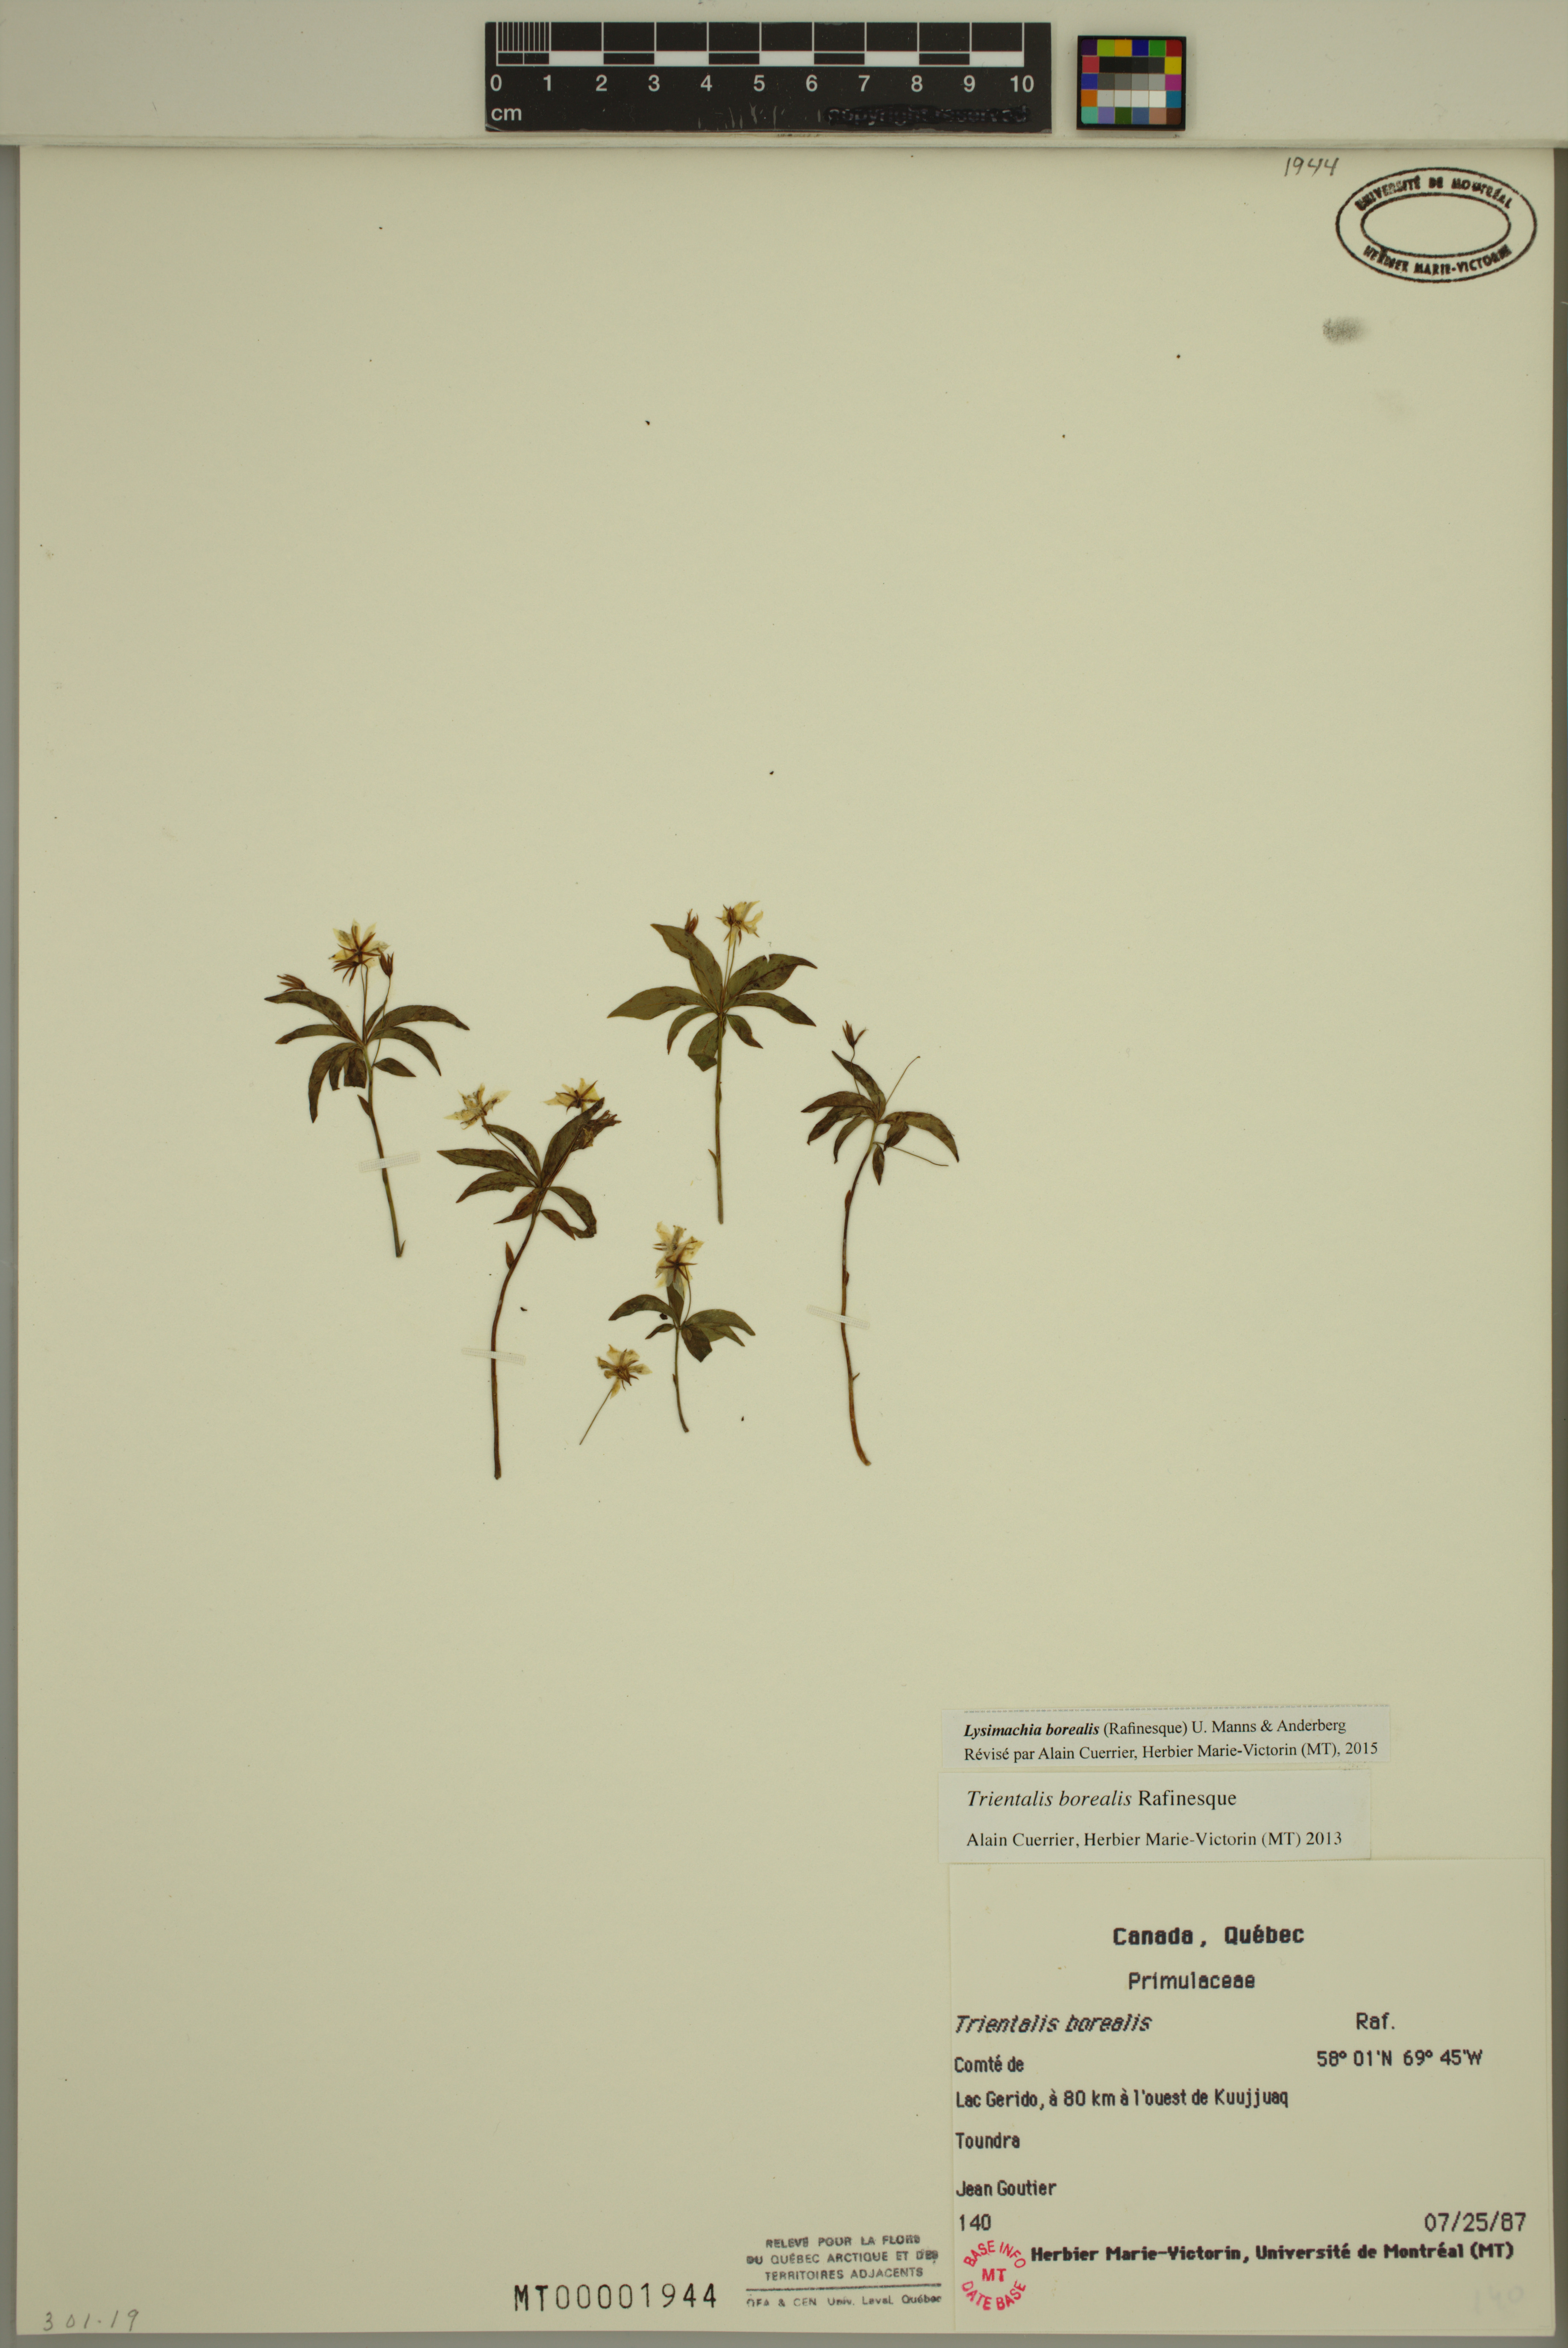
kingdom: Plantae
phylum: Tracheophyta
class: Magnoliopsida
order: Ericales
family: Primulaceae
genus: Lysimachia
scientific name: Lysimachia borealis
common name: American starflower
